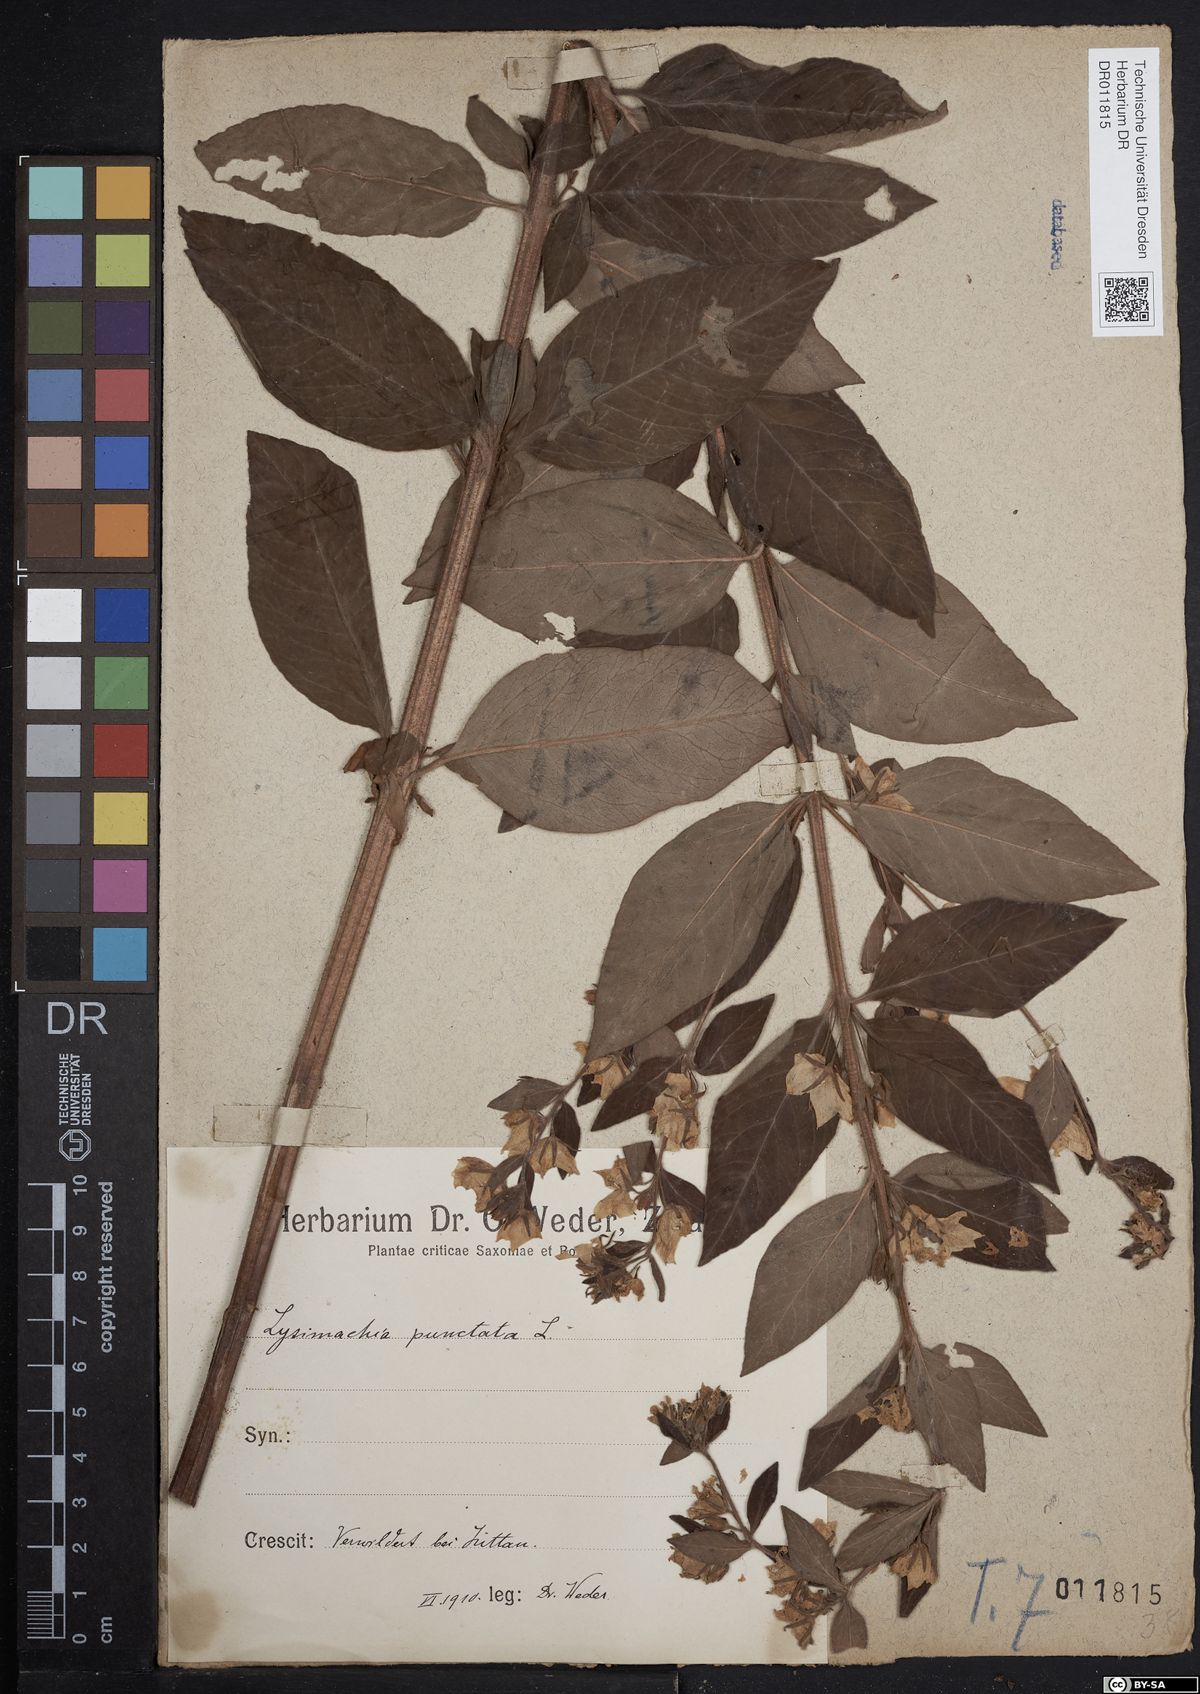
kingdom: Plantae
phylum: Tracheophyta
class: Magnoliopsida
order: Ericales
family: Primulaceae
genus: Lysimachia
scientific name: Lysimachia punctata
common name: Dotted loosestrife
